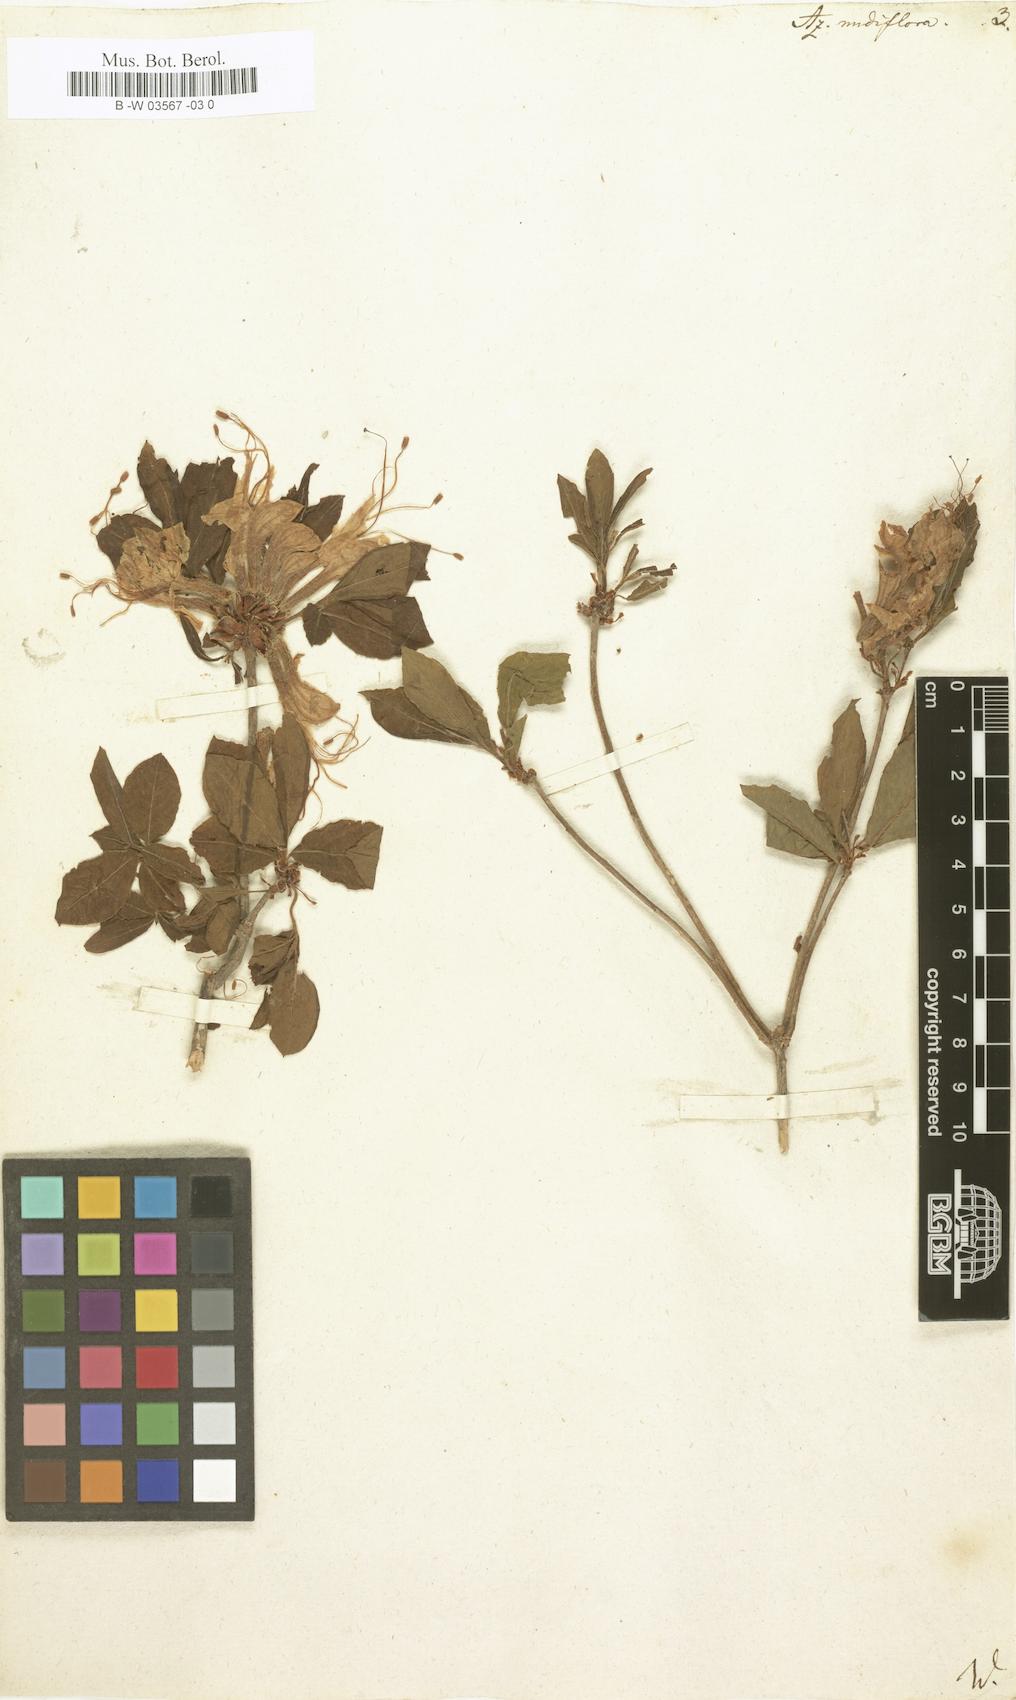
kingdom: Plantae
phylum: Tracheophyta
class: Magnoliopsida
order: Ericales
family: Ericaceae
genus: Rhododendron
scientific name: Rhododendron periclymenoides
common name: Election-pink
